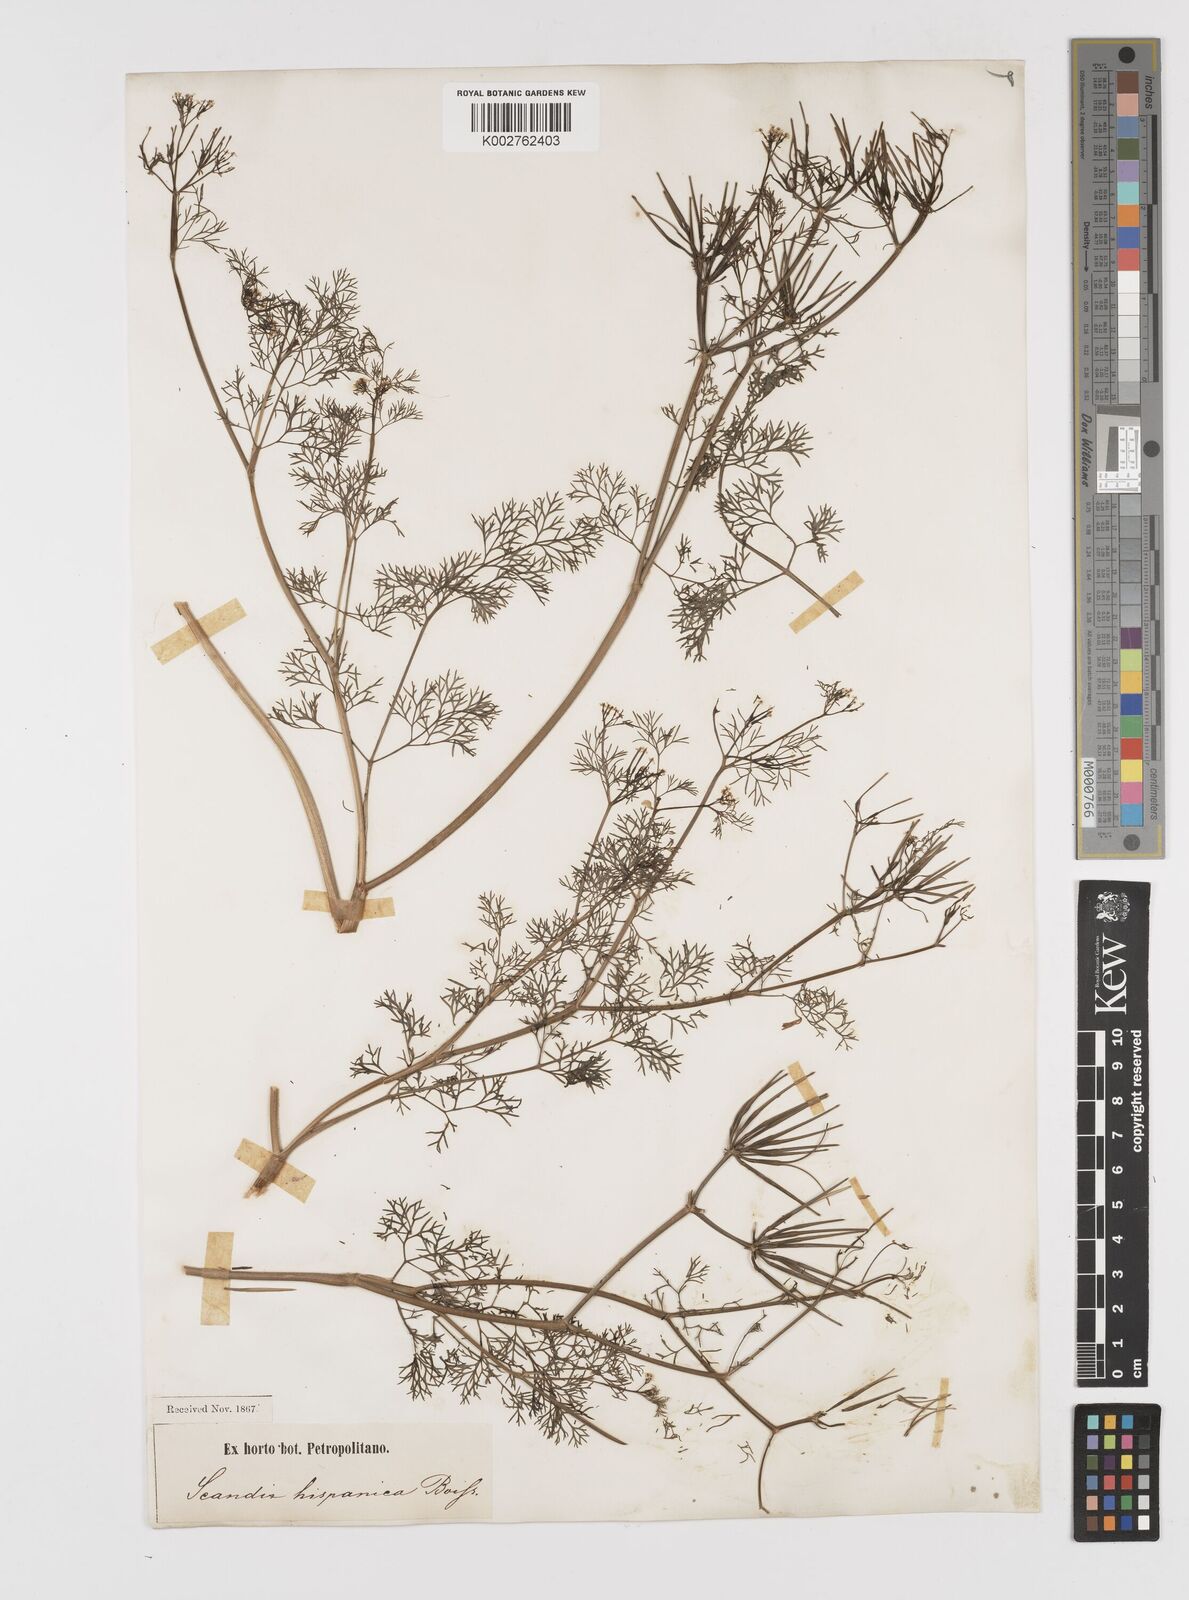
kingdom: Plantae
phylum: Tracheophyta
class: Magnoliopsida
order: Apiales
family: Apiaceae
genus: Scandix
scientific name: Scandix pecten-veneris
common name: Shepherd's-needle
